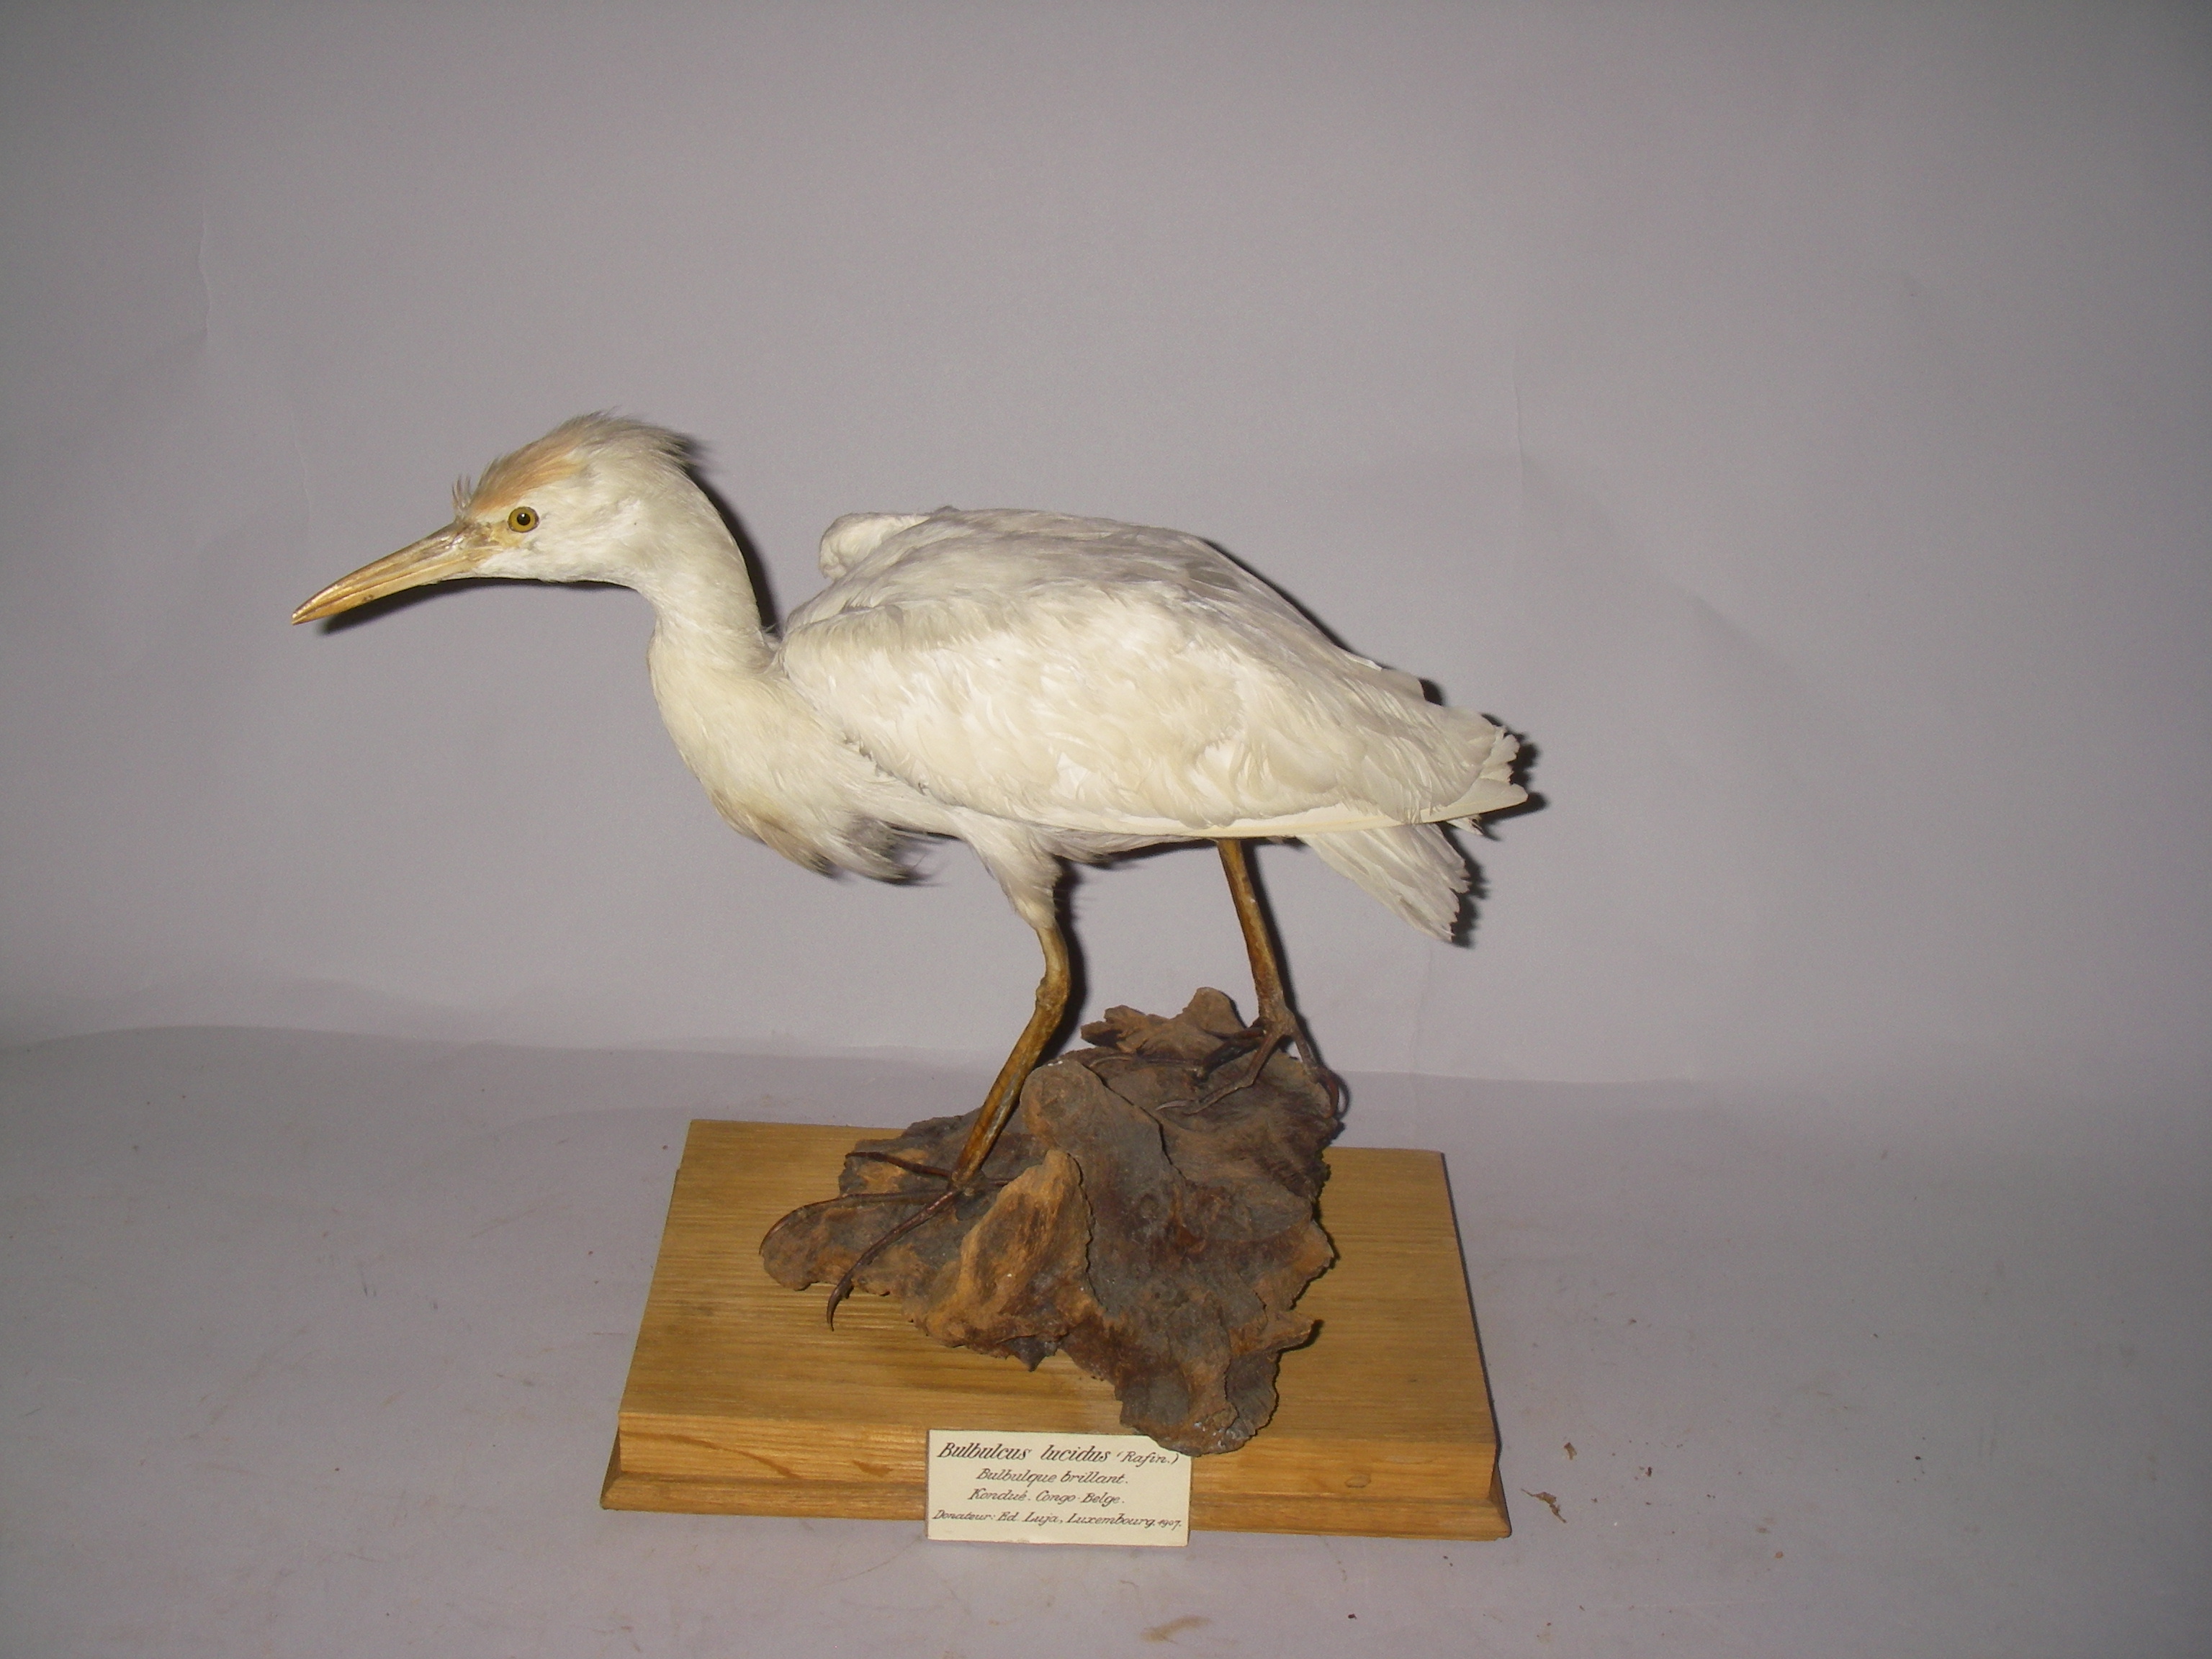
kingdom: Animalia
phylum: Chordata
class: Aves
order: Pelecaniformes
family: Ardeidae
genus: Bubulcus
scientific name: Bubulcus ibis
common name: Cattle egret
